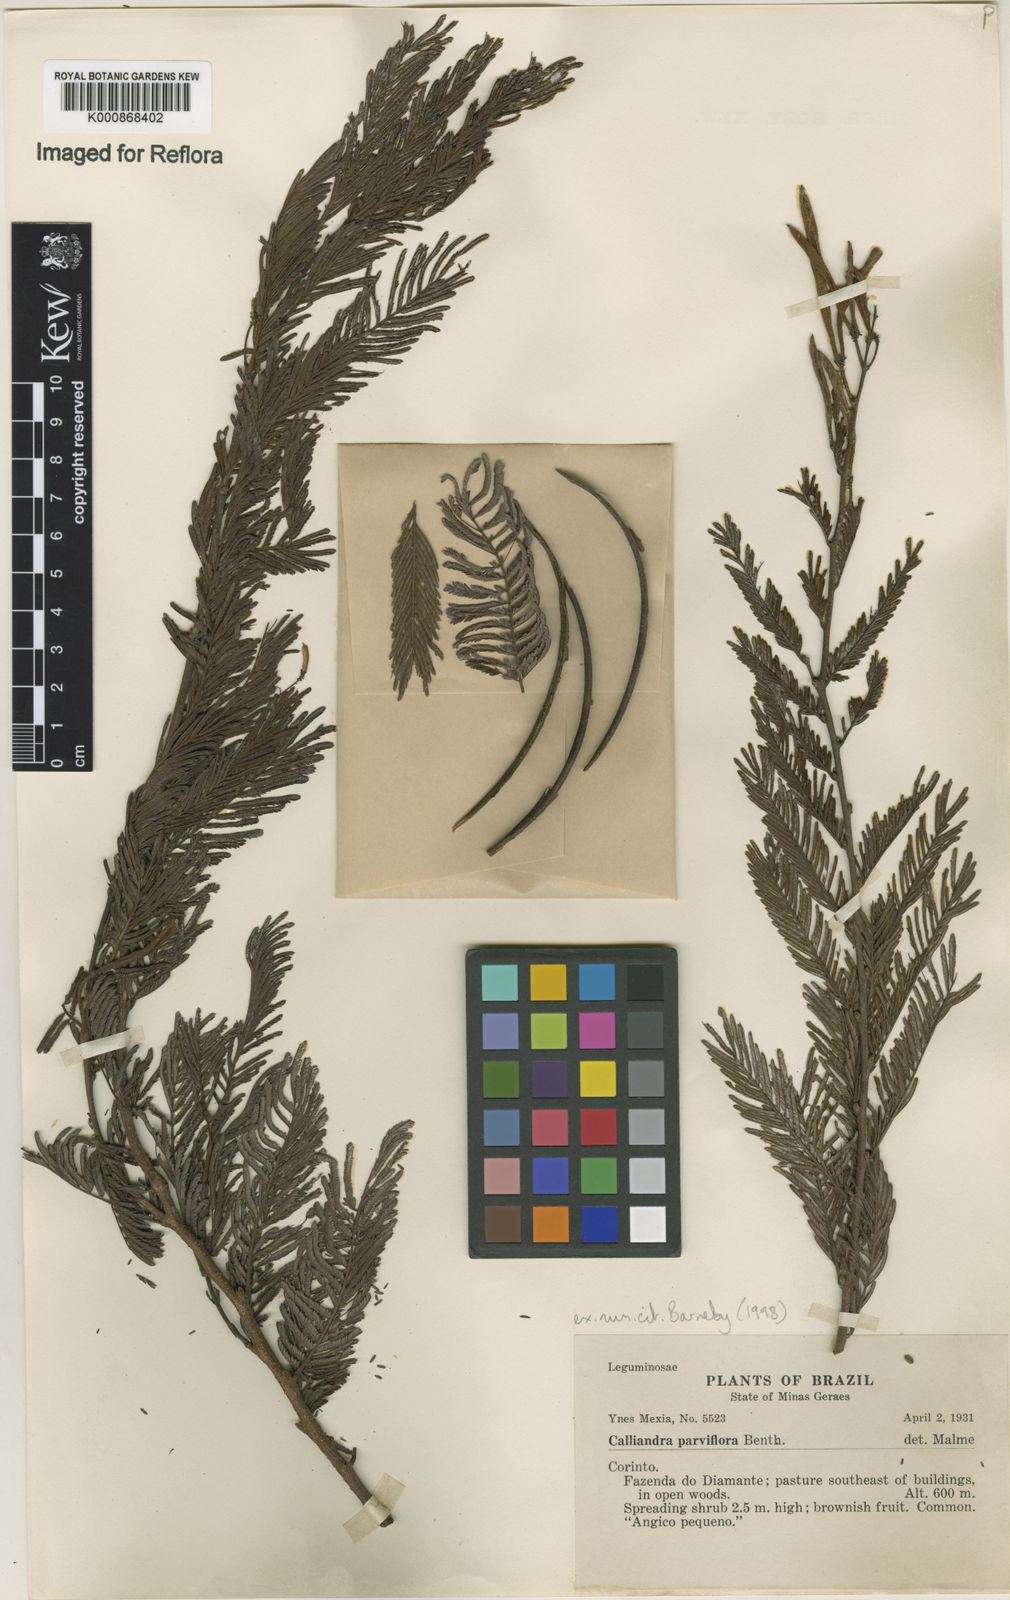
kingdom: Plantae
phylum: Tracheophyta
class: Magnoliopsida
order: Fabales
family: Fabaceae
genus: Calliandra
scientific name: Calliandra parviflora
